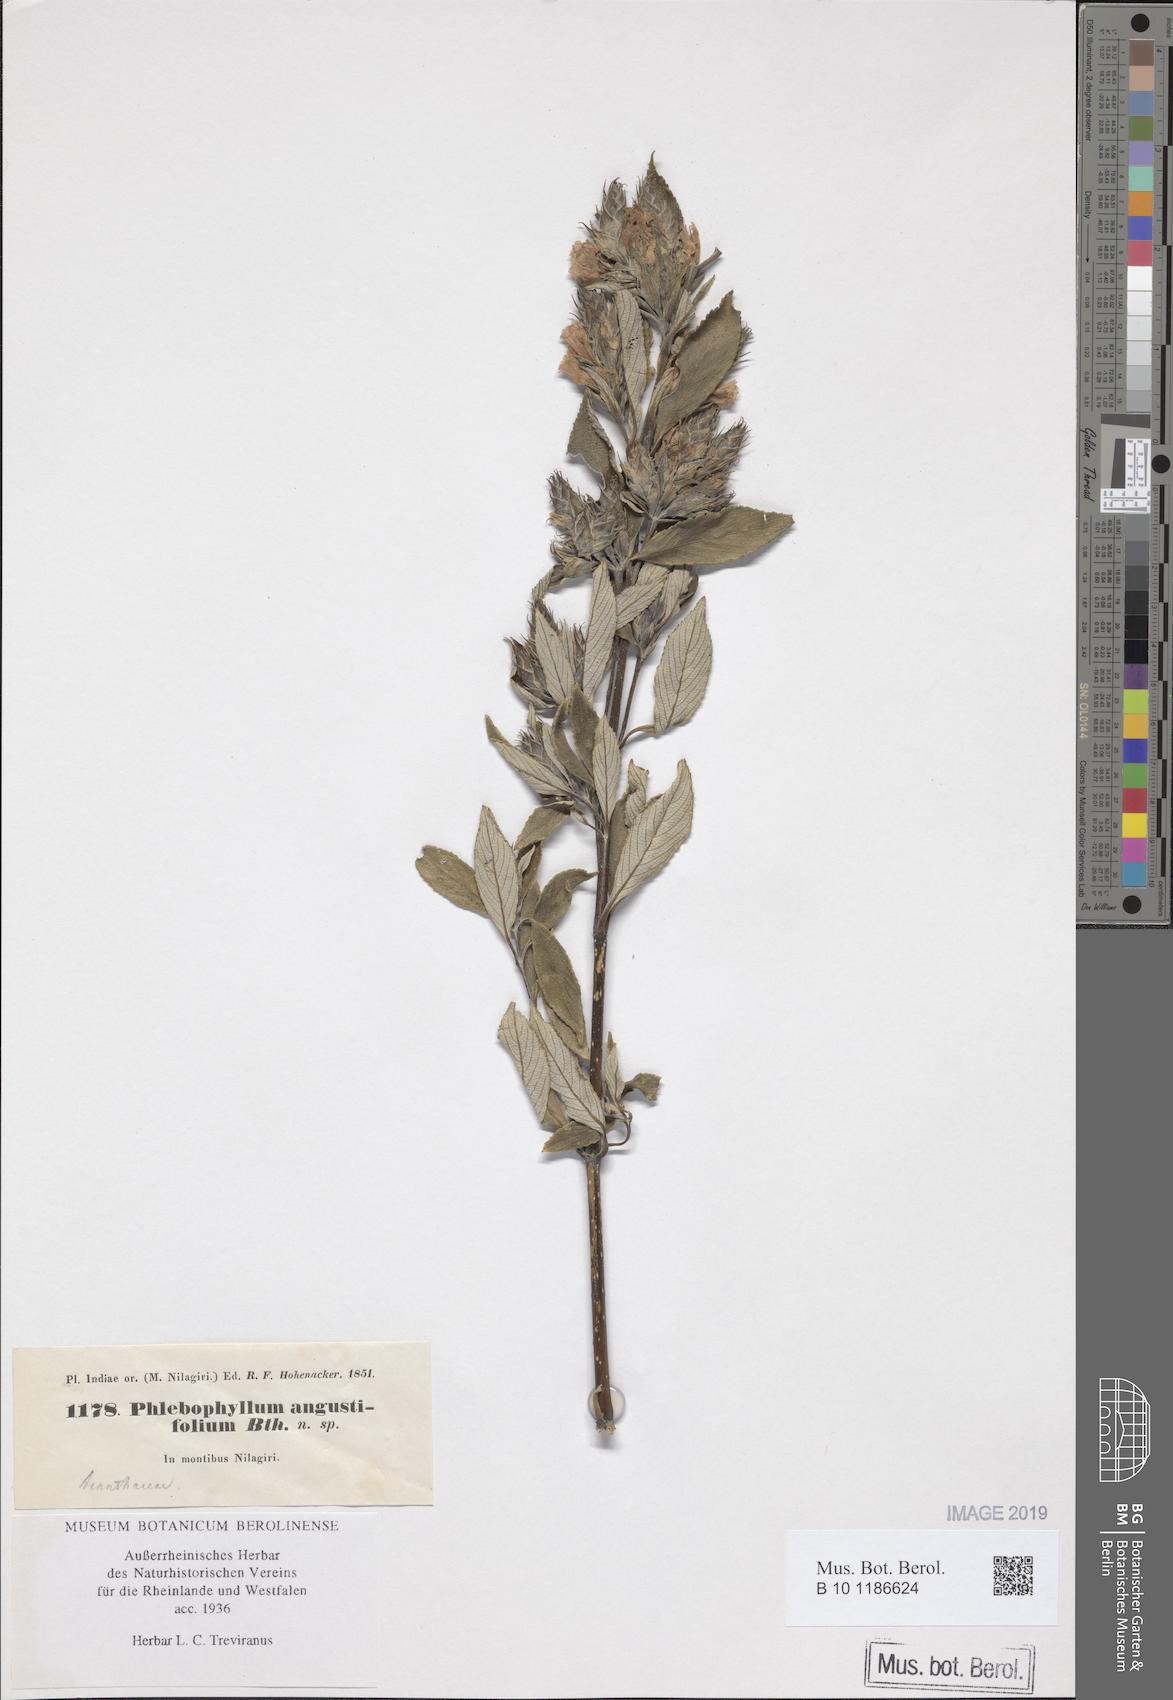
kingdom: Plantae
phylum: Tracheophyta
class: Magnoliopsida
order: Lamiales
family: Acanthaceae
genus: Strobilanthes
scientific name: Strobilanthes kunthiana
